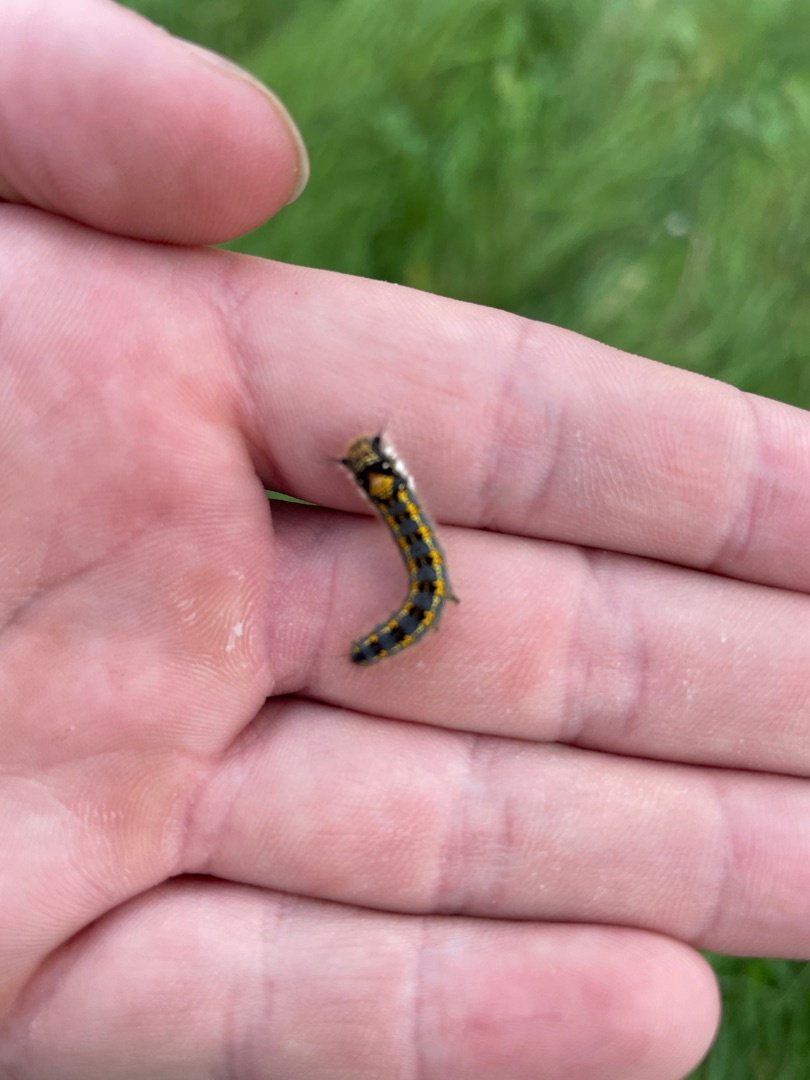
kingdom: Animalia
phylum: Arthropoda
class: Insecta
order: Lepidoptera
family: Lasiocampidae
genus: Euthrix
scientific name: Euthrix potatoria
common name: Græsspinder
